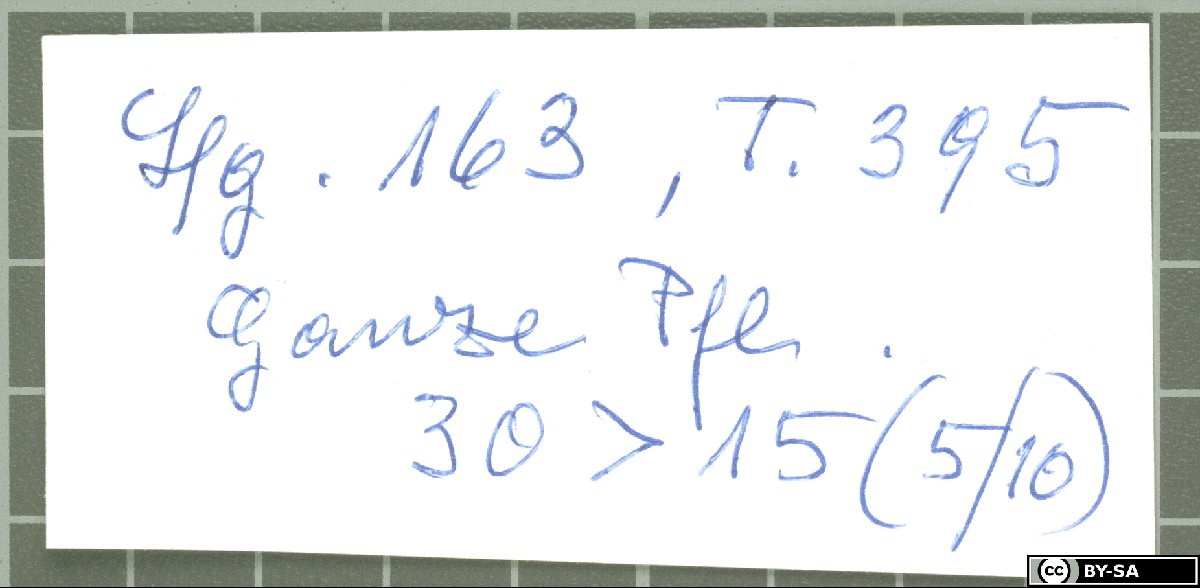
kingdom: Plantae
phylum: Tracheophyta
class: Magnoliopsida
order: Caryophyllales
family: Caryophyllaceae
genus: Dianthus
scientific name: Dianthus orientalis
